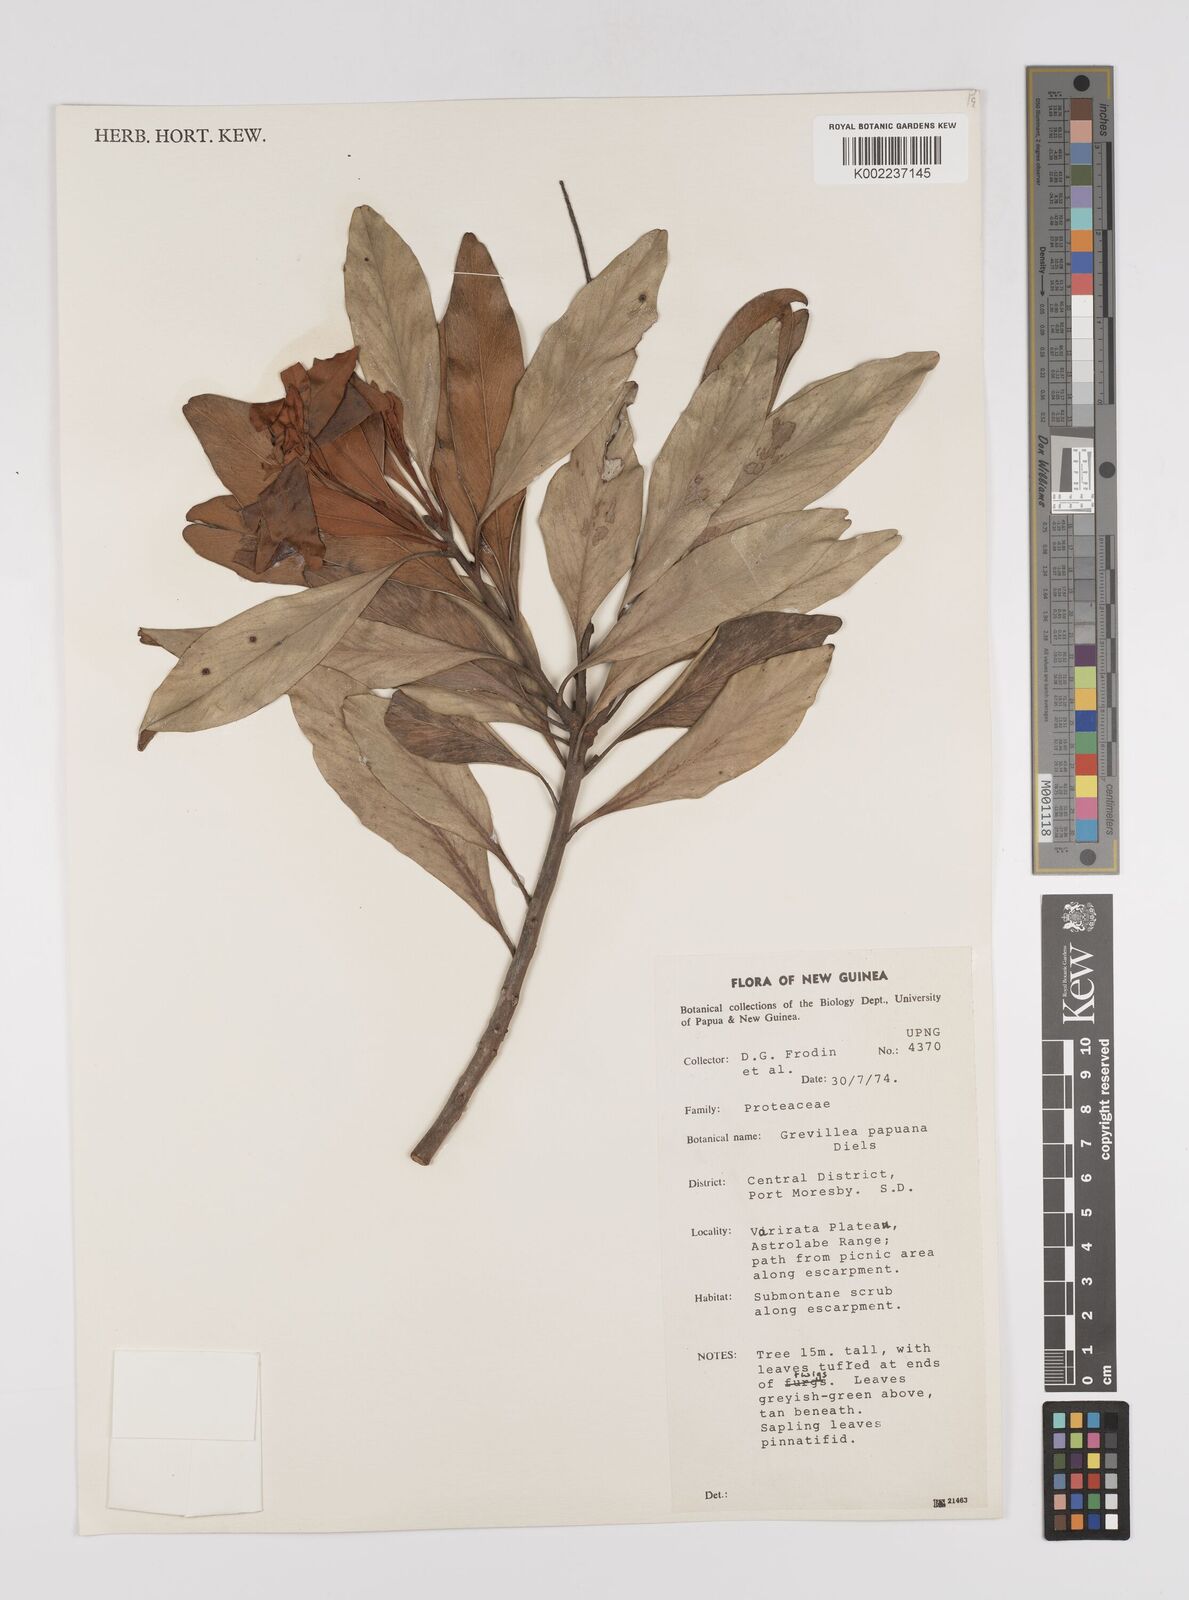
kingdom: Plantae
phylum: Tracheophyta
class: Magnoliopsida
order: Proteales
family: Proteaceae
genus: Grevillea
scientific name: Grevillea papuana
